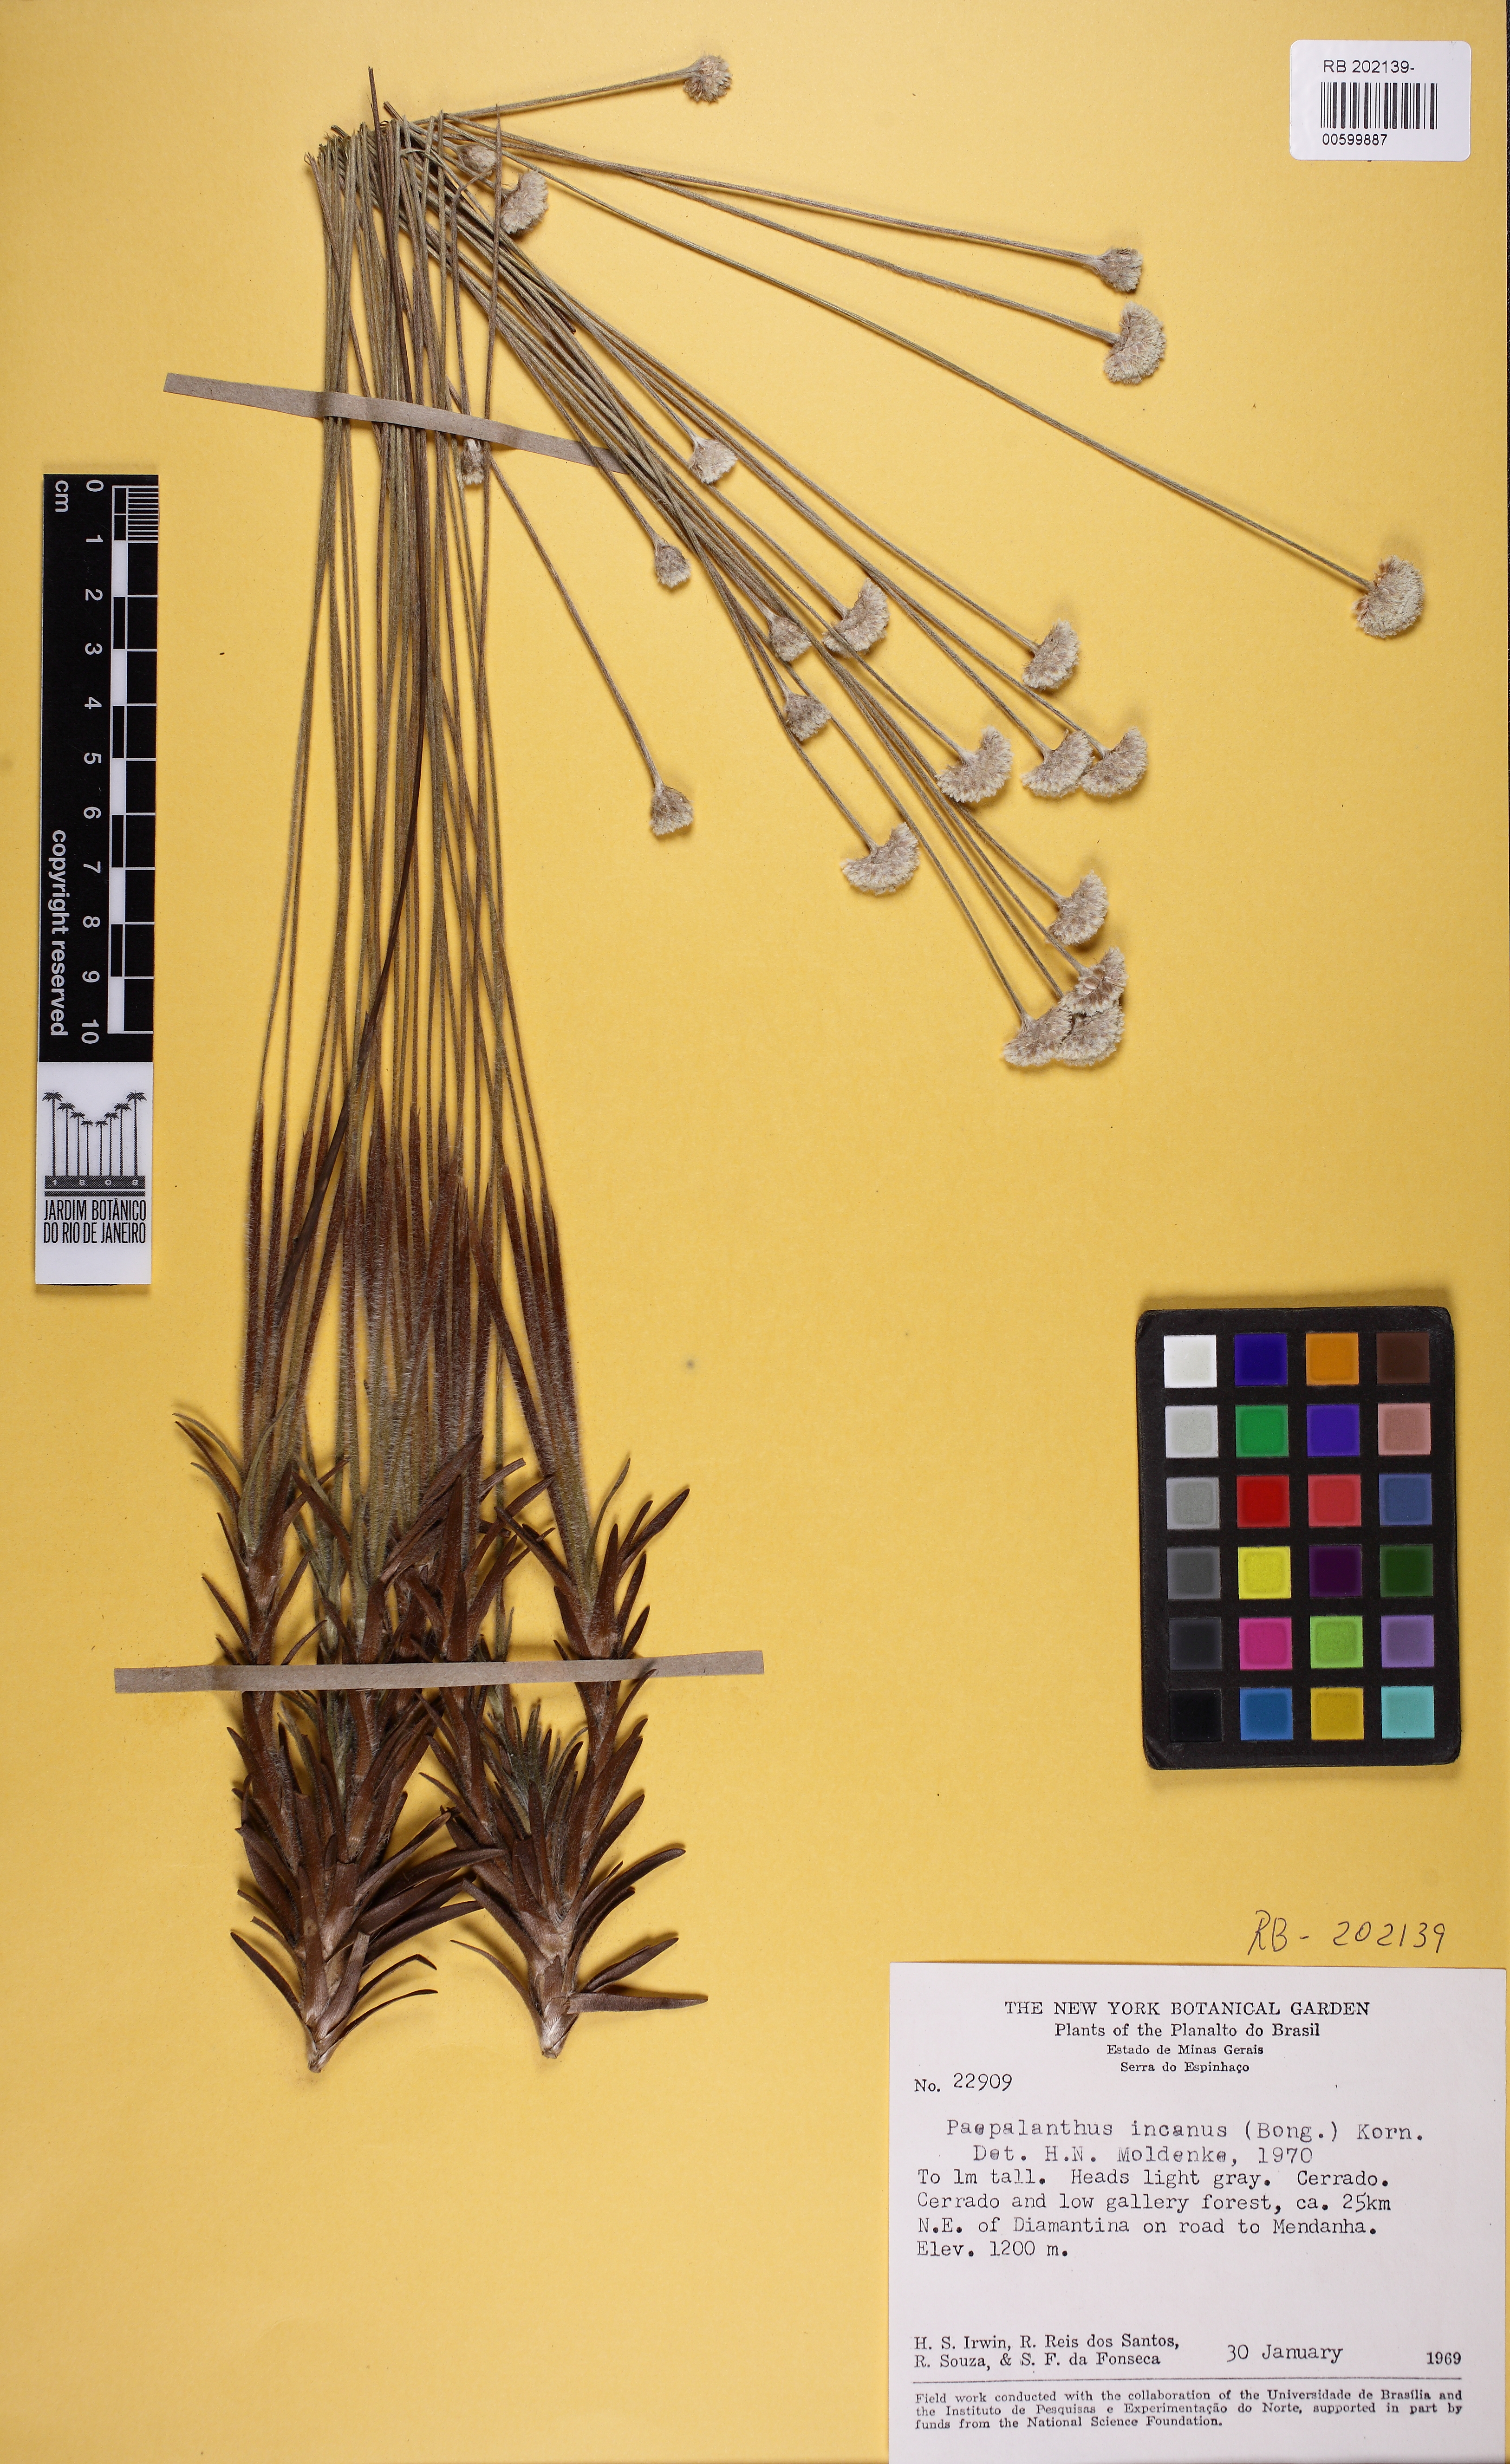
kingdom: Plantae
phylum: Tracheophyta
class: Liliopsida
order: Poales
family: Eriocaulaceae
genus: Paepalanthus
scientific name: Paepalanthus incanus
